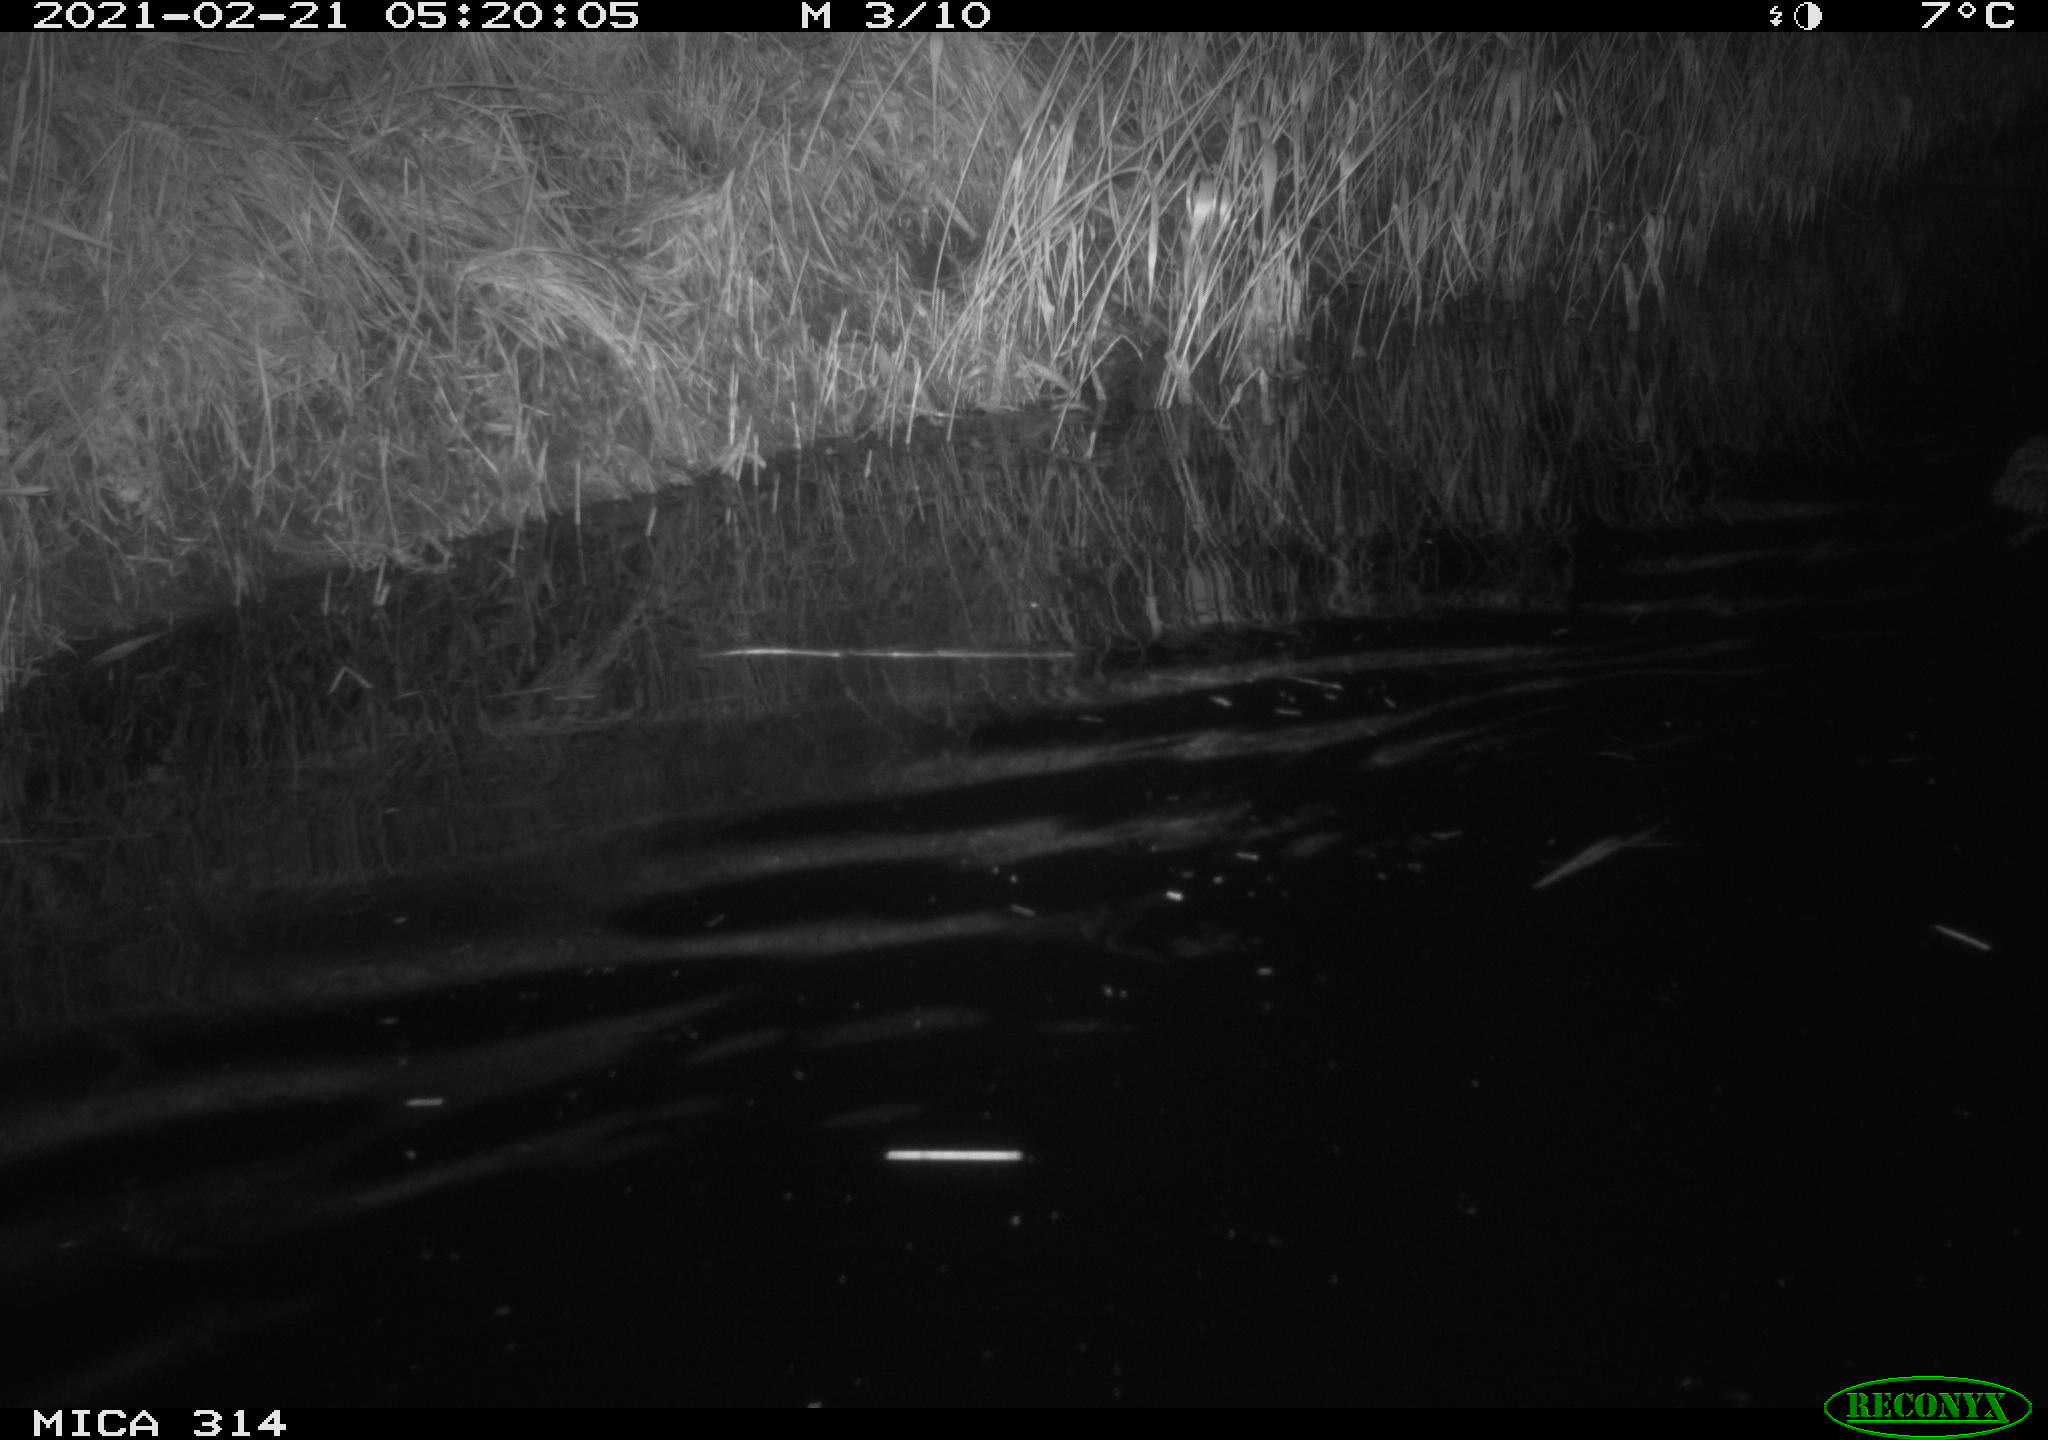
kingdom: Animalia
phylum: Chordata
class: Mammalia
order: Rodentia
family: Cricetidae
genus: Ondatra
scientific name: Ondatra zibethicus
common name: Muskrat
